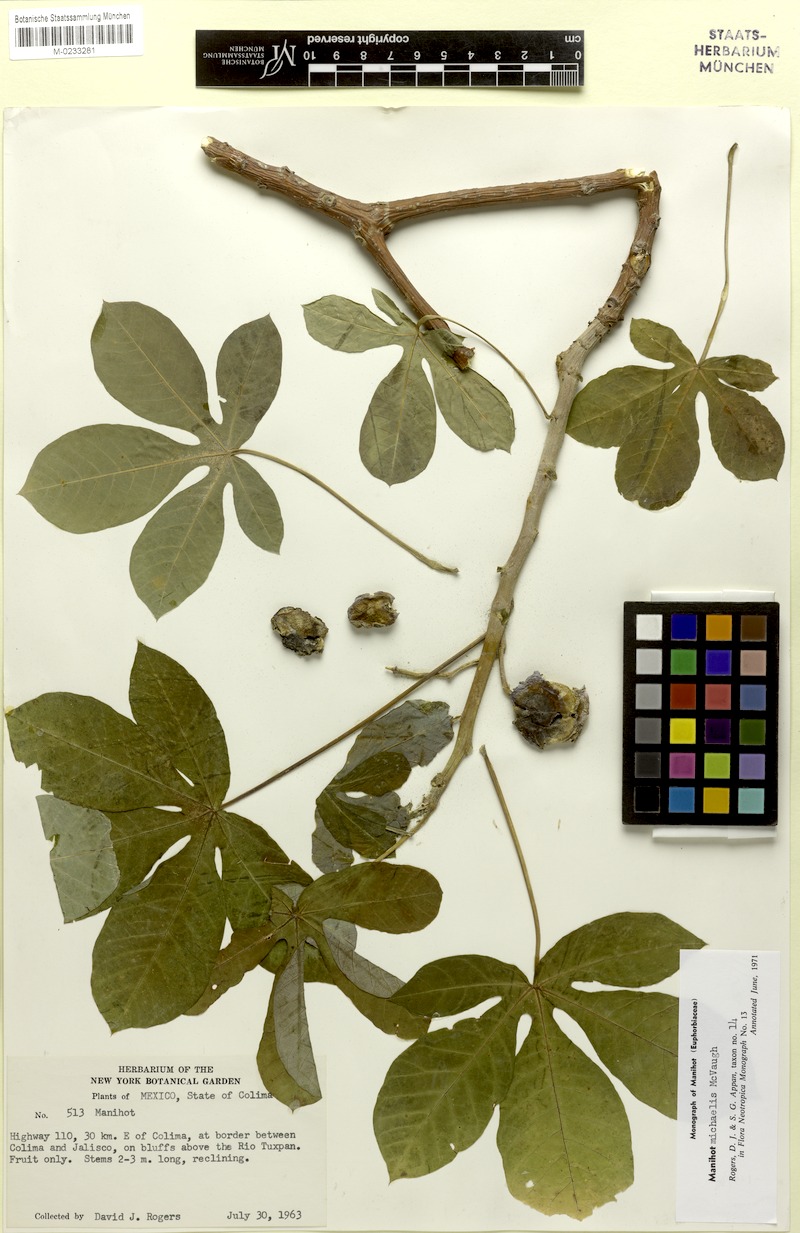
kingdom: Plantae
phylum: Tracheophyta
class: Magnoliopsida
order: Malpighiales
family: Euphorbiaceae
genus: Manihot
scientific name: Manihot michaelis
